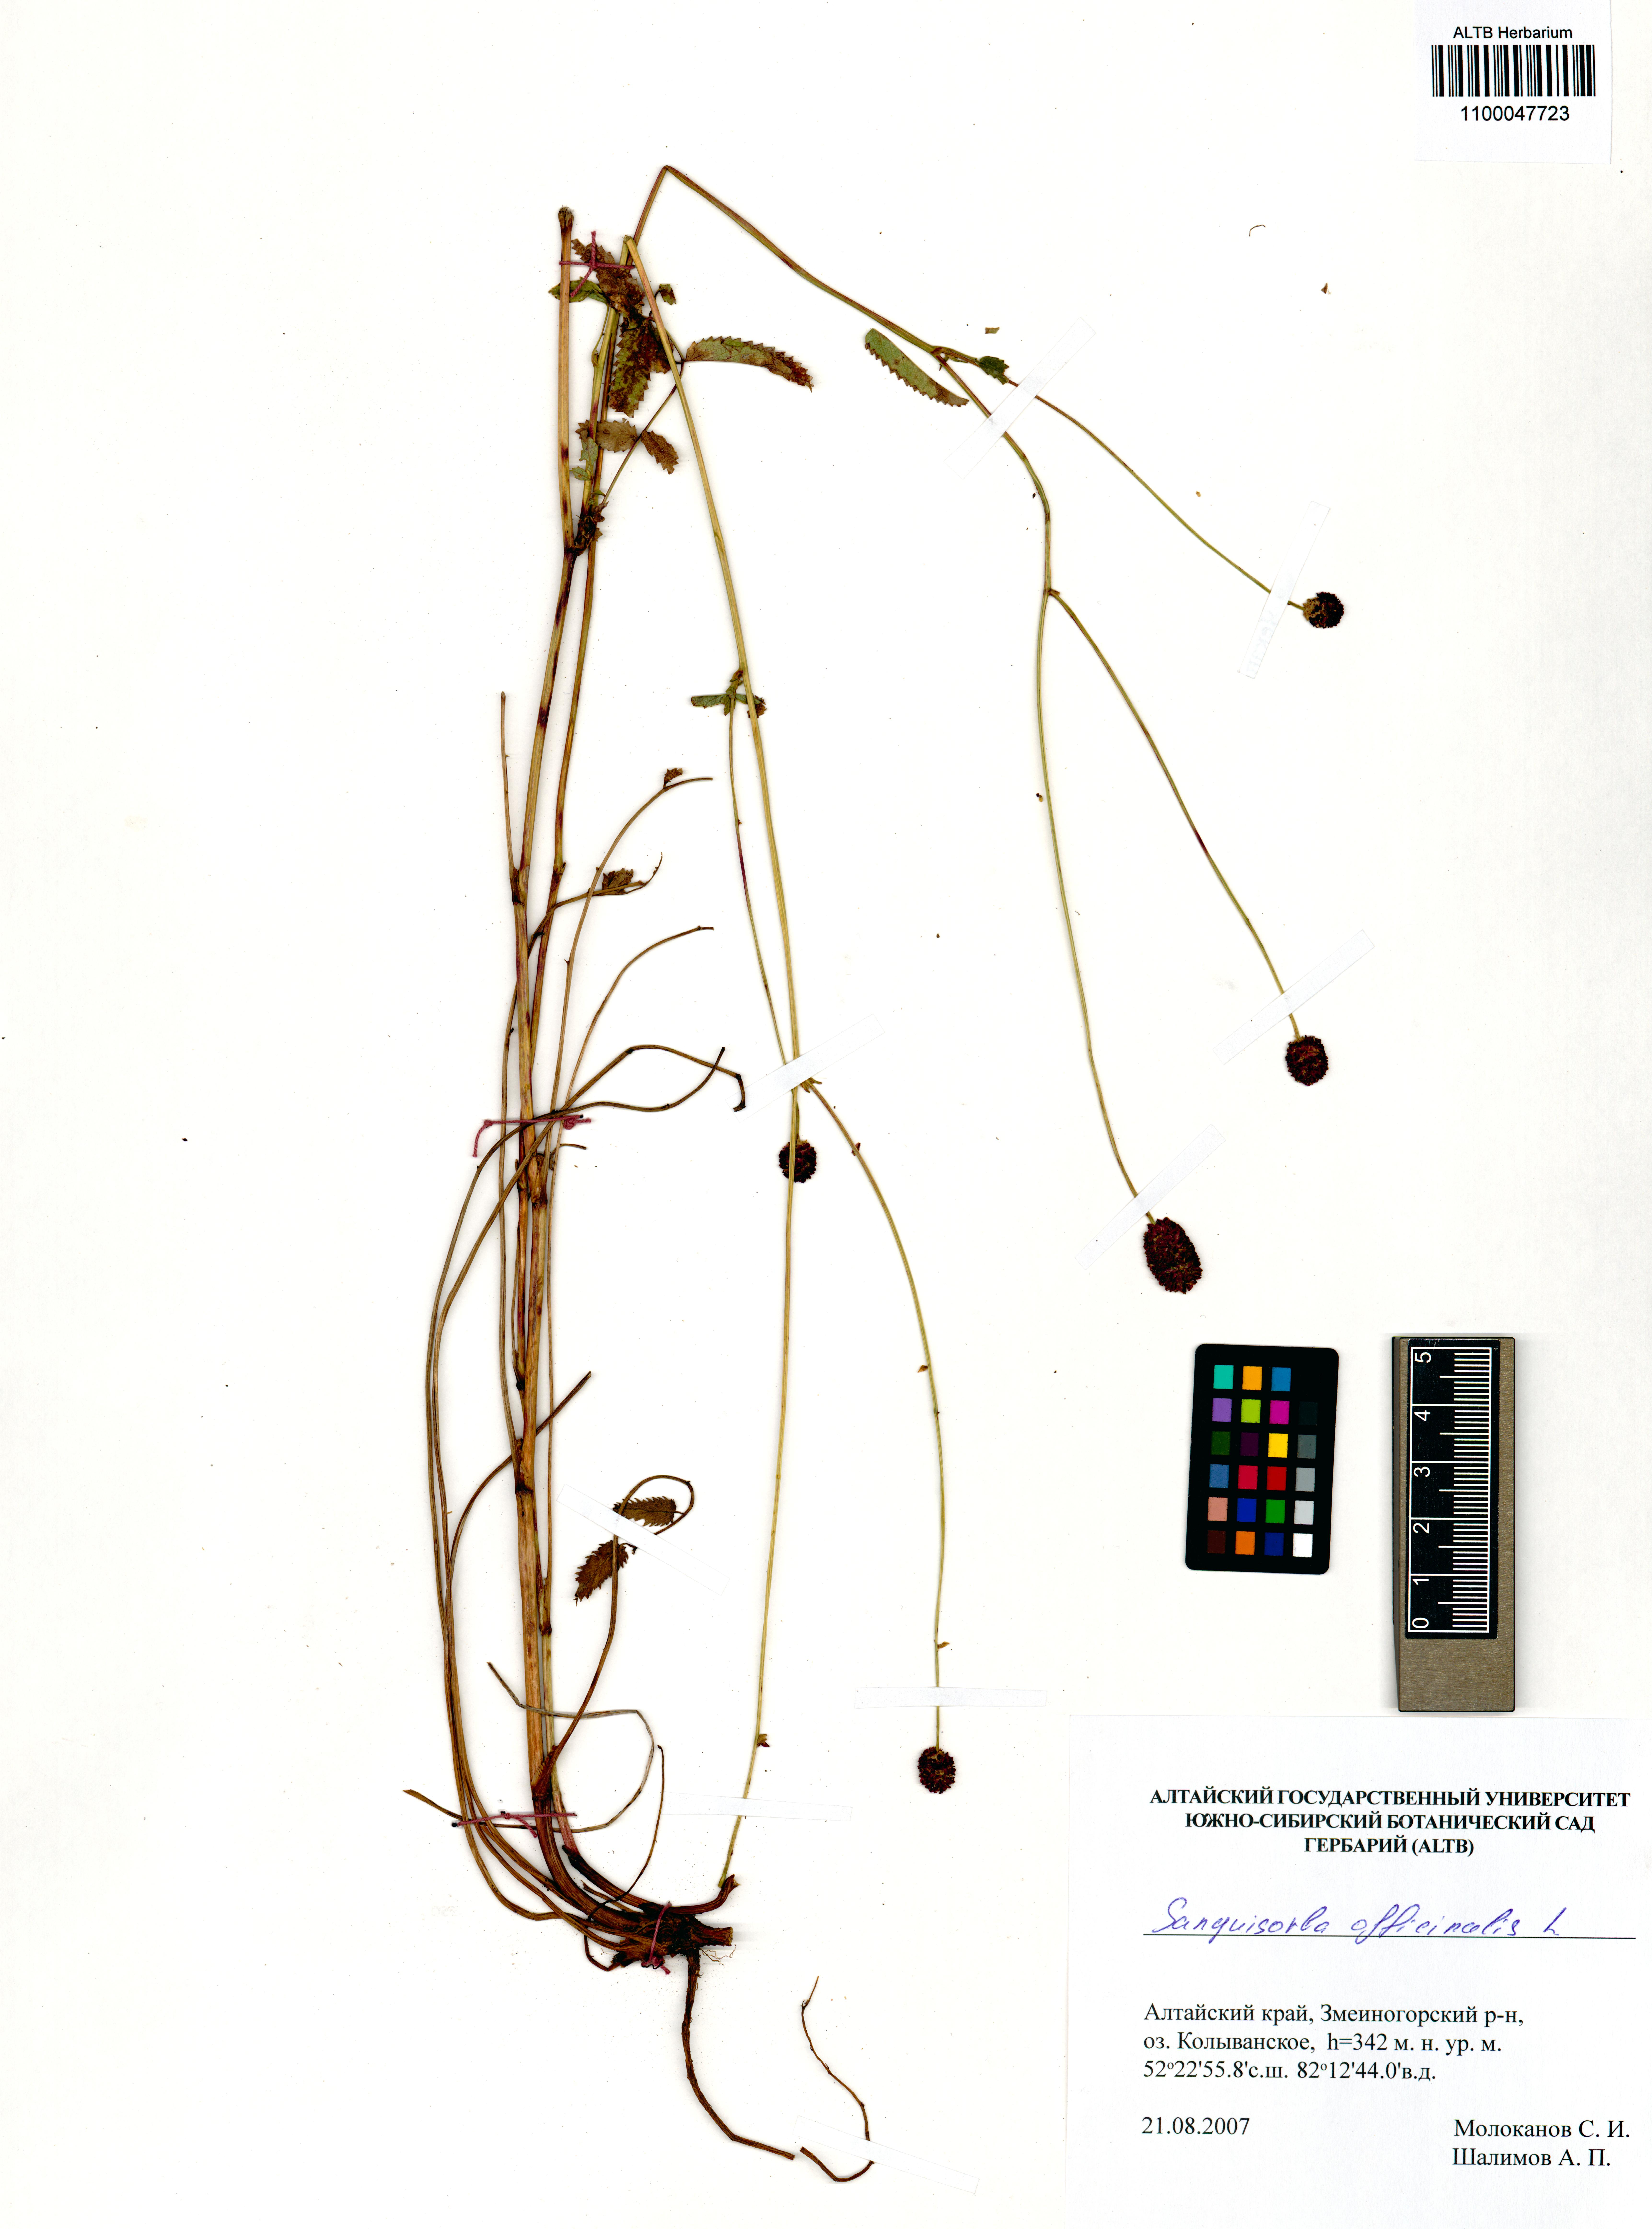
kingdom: Plantae
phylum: Tracheophyta
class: Magnoliopsida
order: Rosales
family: Rosaceae
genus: Sanguisorba
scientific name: Sanguisorba officinalis
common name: Great burnet
